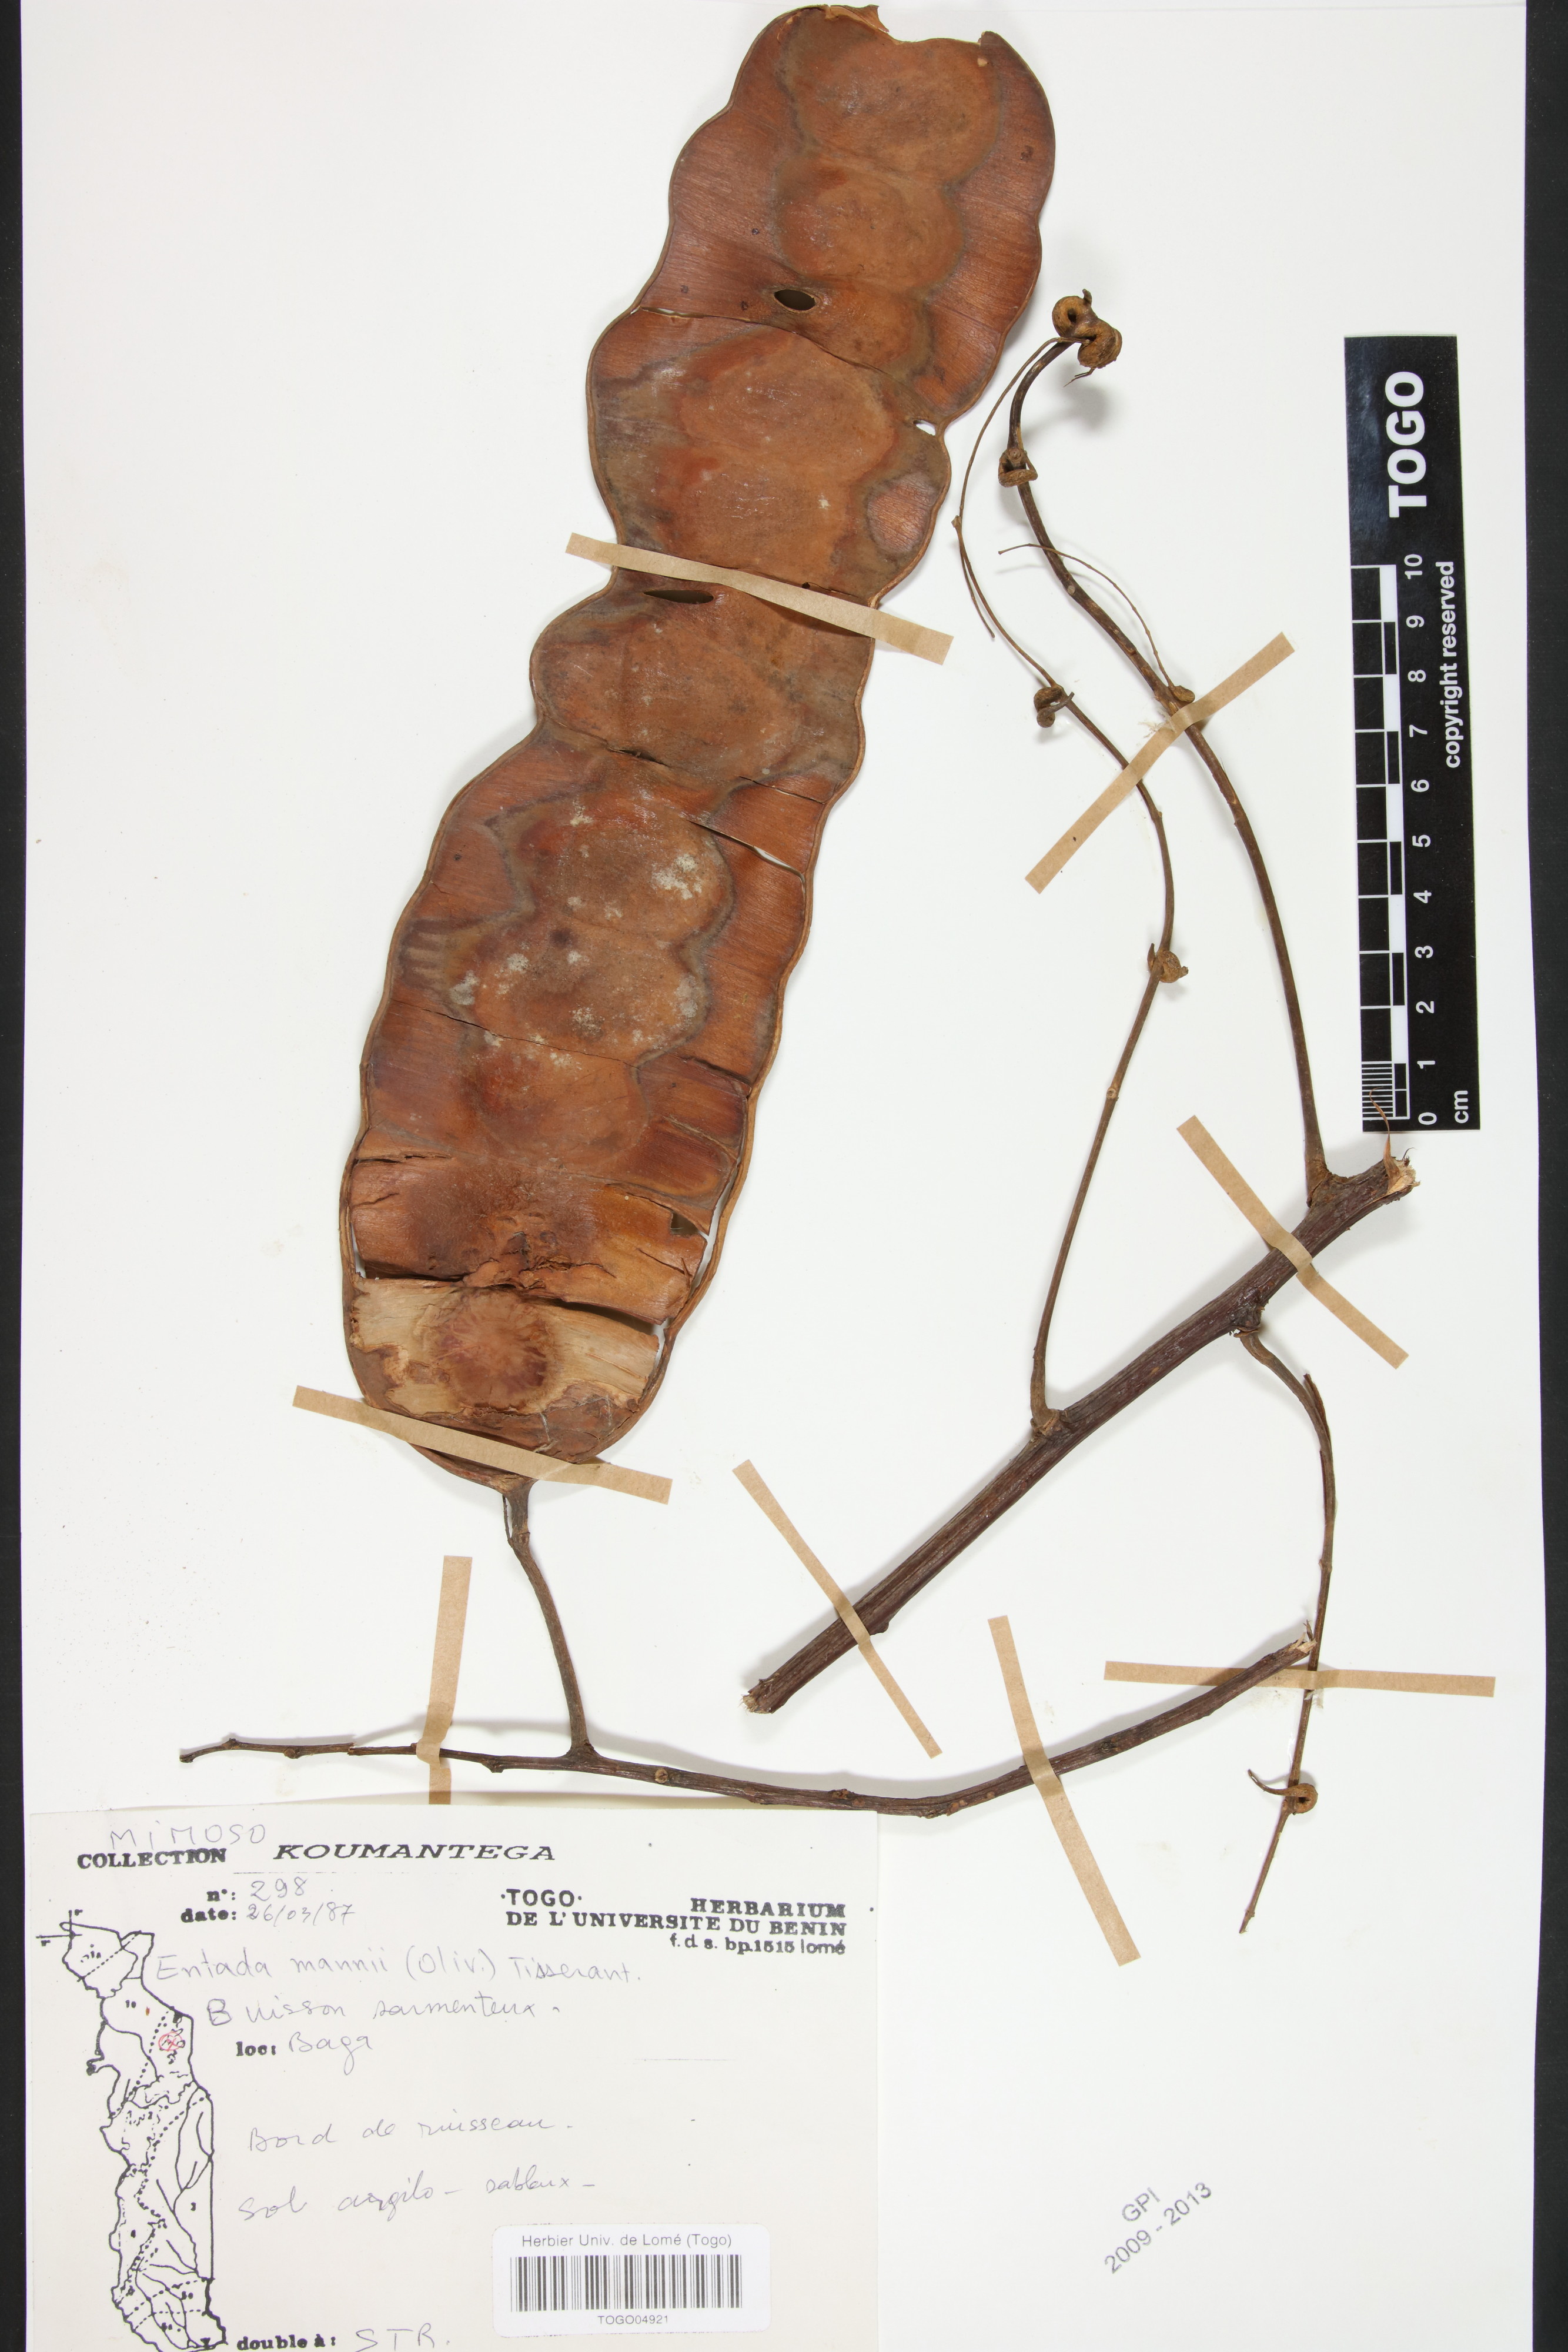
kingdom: Plantae
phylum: Tracheophyta
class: Magnoliopsida
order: Fabales
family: Fabaceae
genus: Entada
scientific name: Entada mannii
